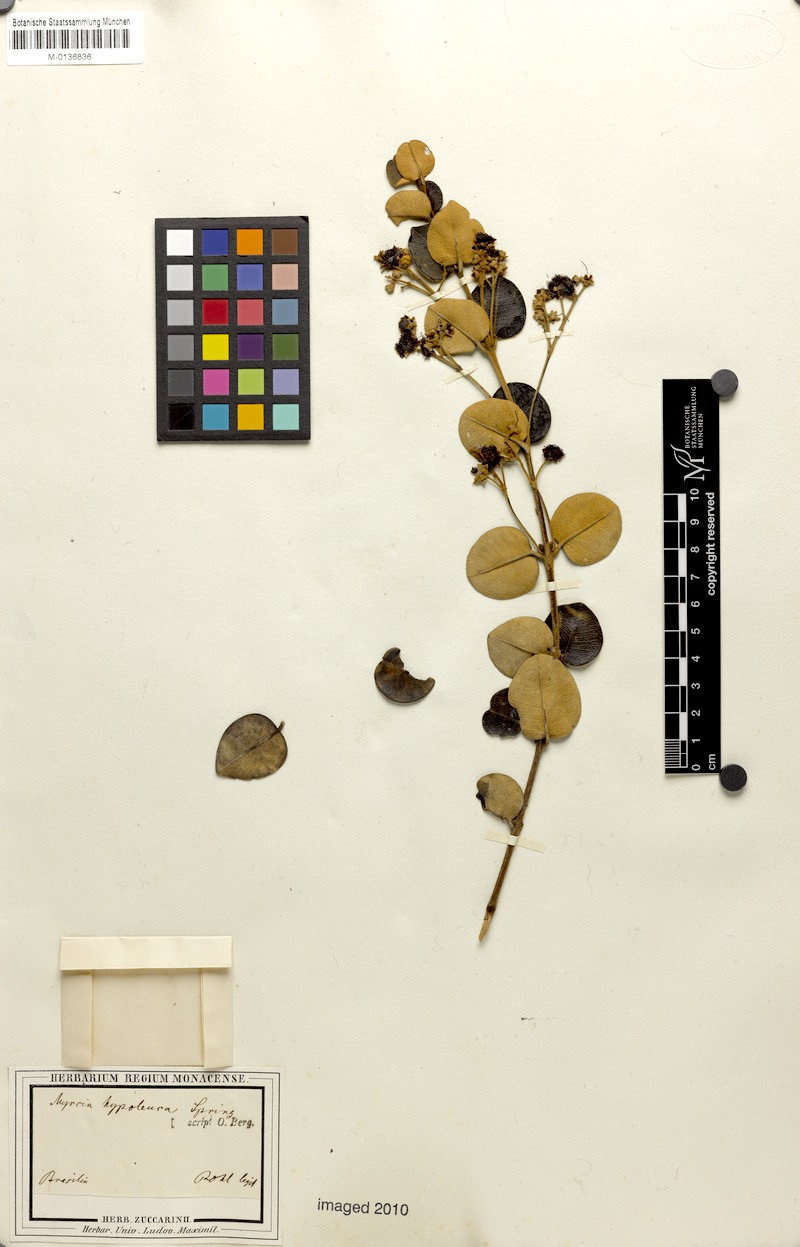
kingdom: Plantae
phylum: Tracheophyta
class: Magnoliopsida
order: Myrtales
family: Myrtaceae
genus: Myrcia
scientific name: Myrcia hypoleuca
